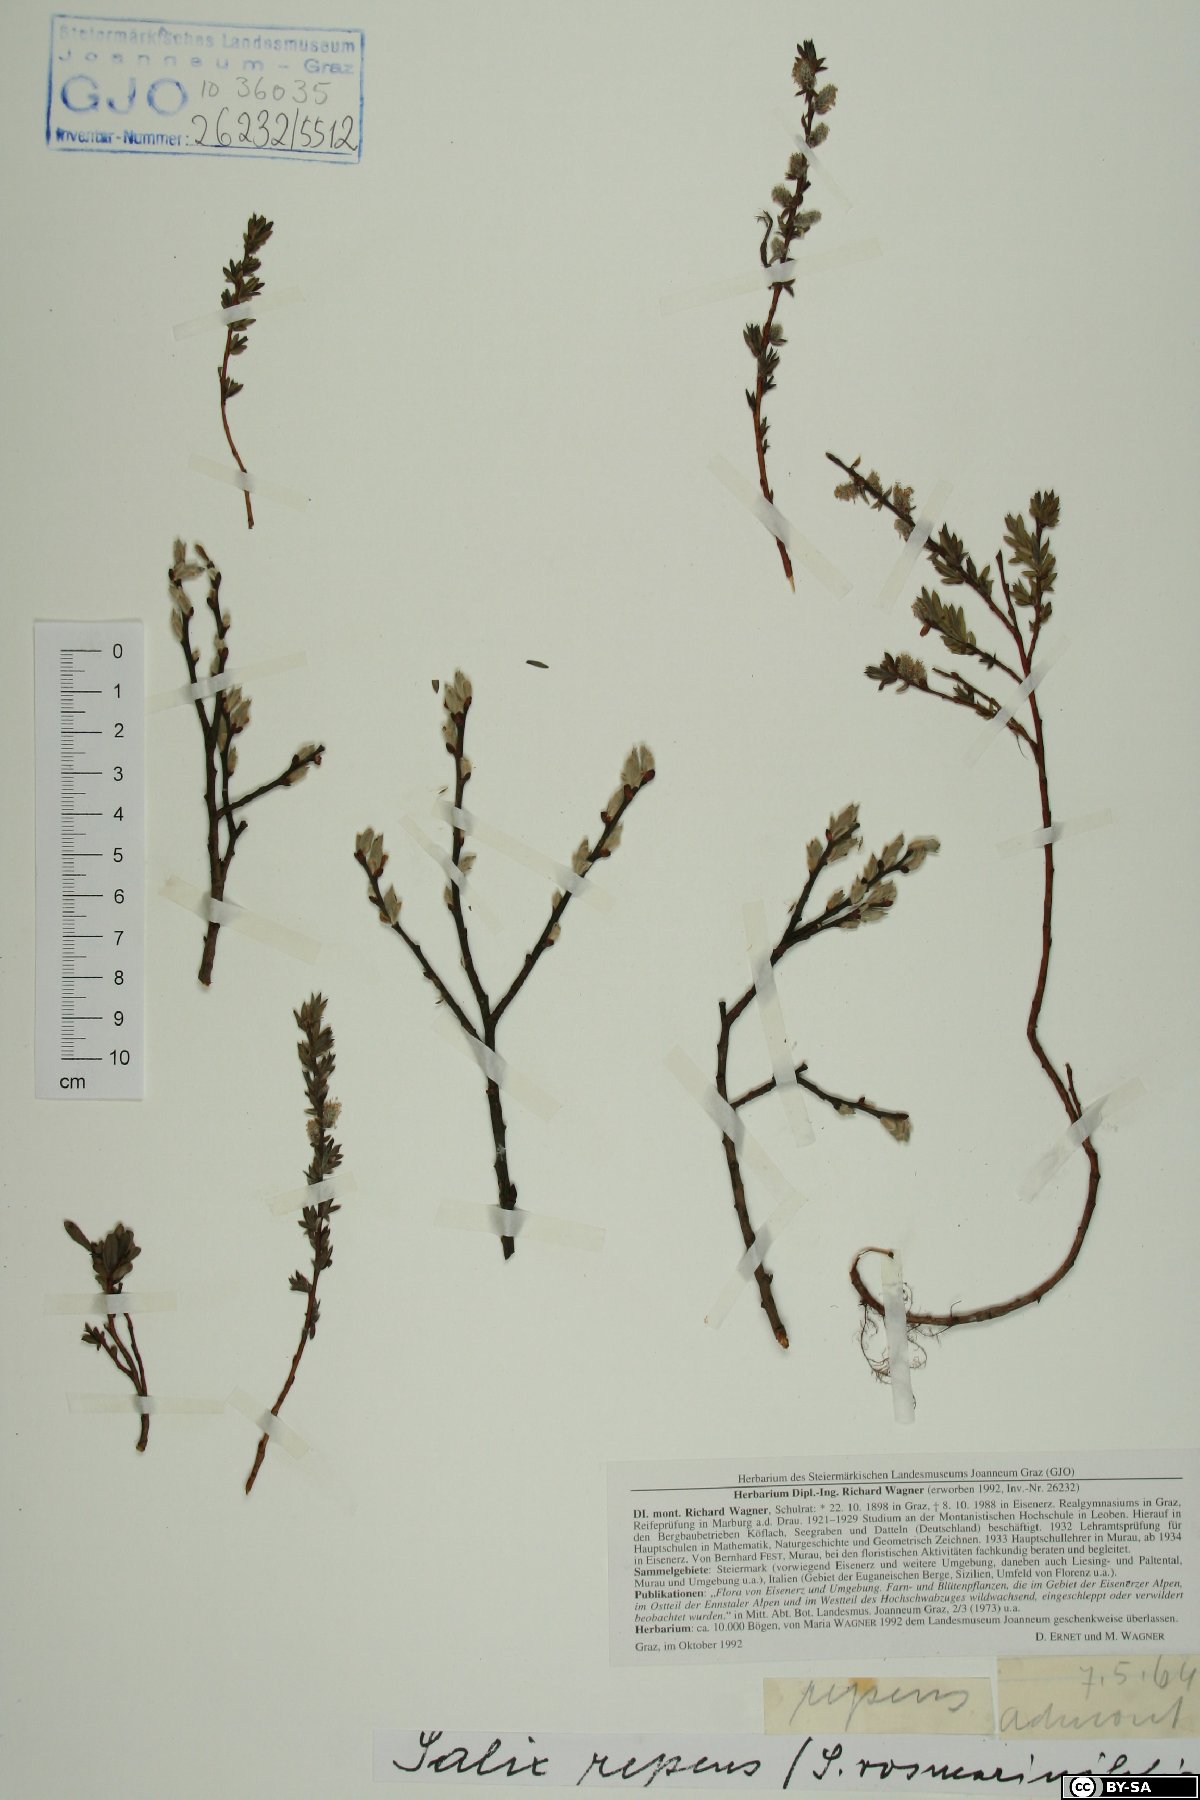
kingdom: Plantae
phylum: Tracheophyta
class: Magnoliopsida
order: Malpighiales
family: Salicaceae
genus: Salix
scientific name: Salix repens
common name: Creeping willow
